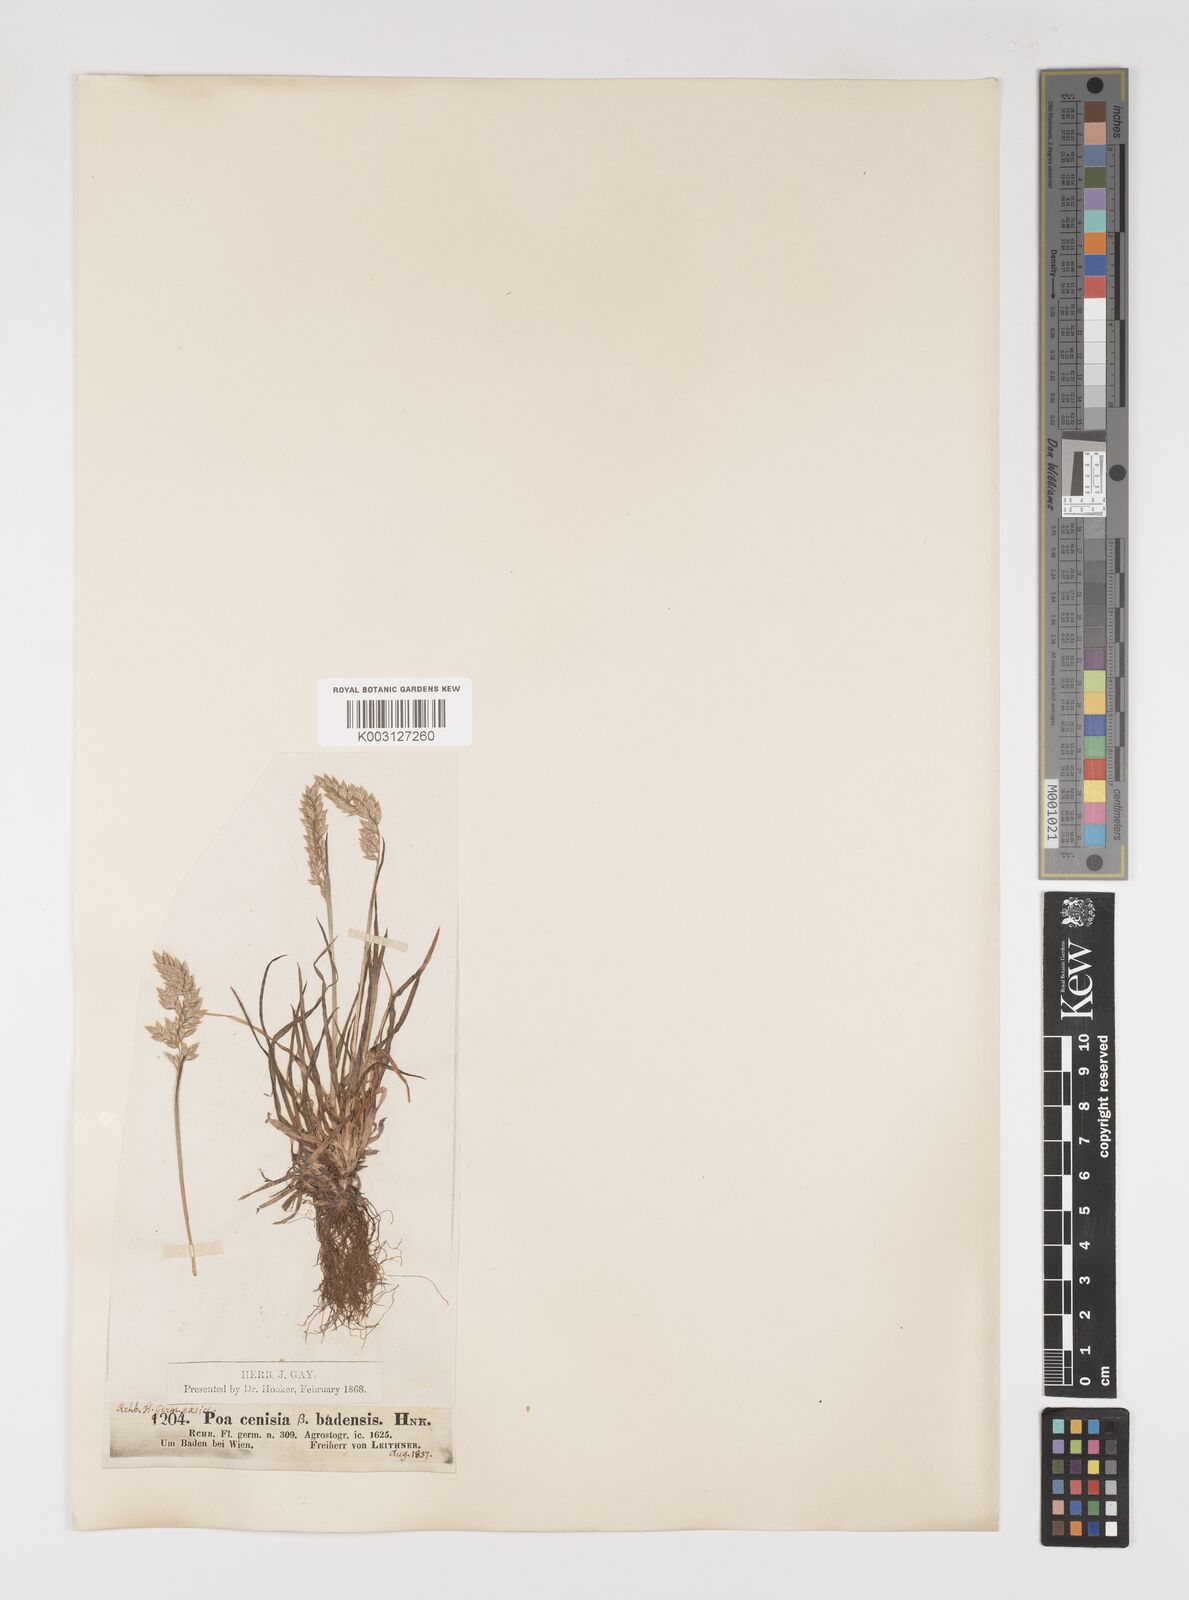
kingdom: Plantae
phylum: Tracheophyta
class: Liliopsida
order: Poales
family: Poaceae
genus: Poa
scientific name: Poa alpina
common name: Alpine bluegrass
